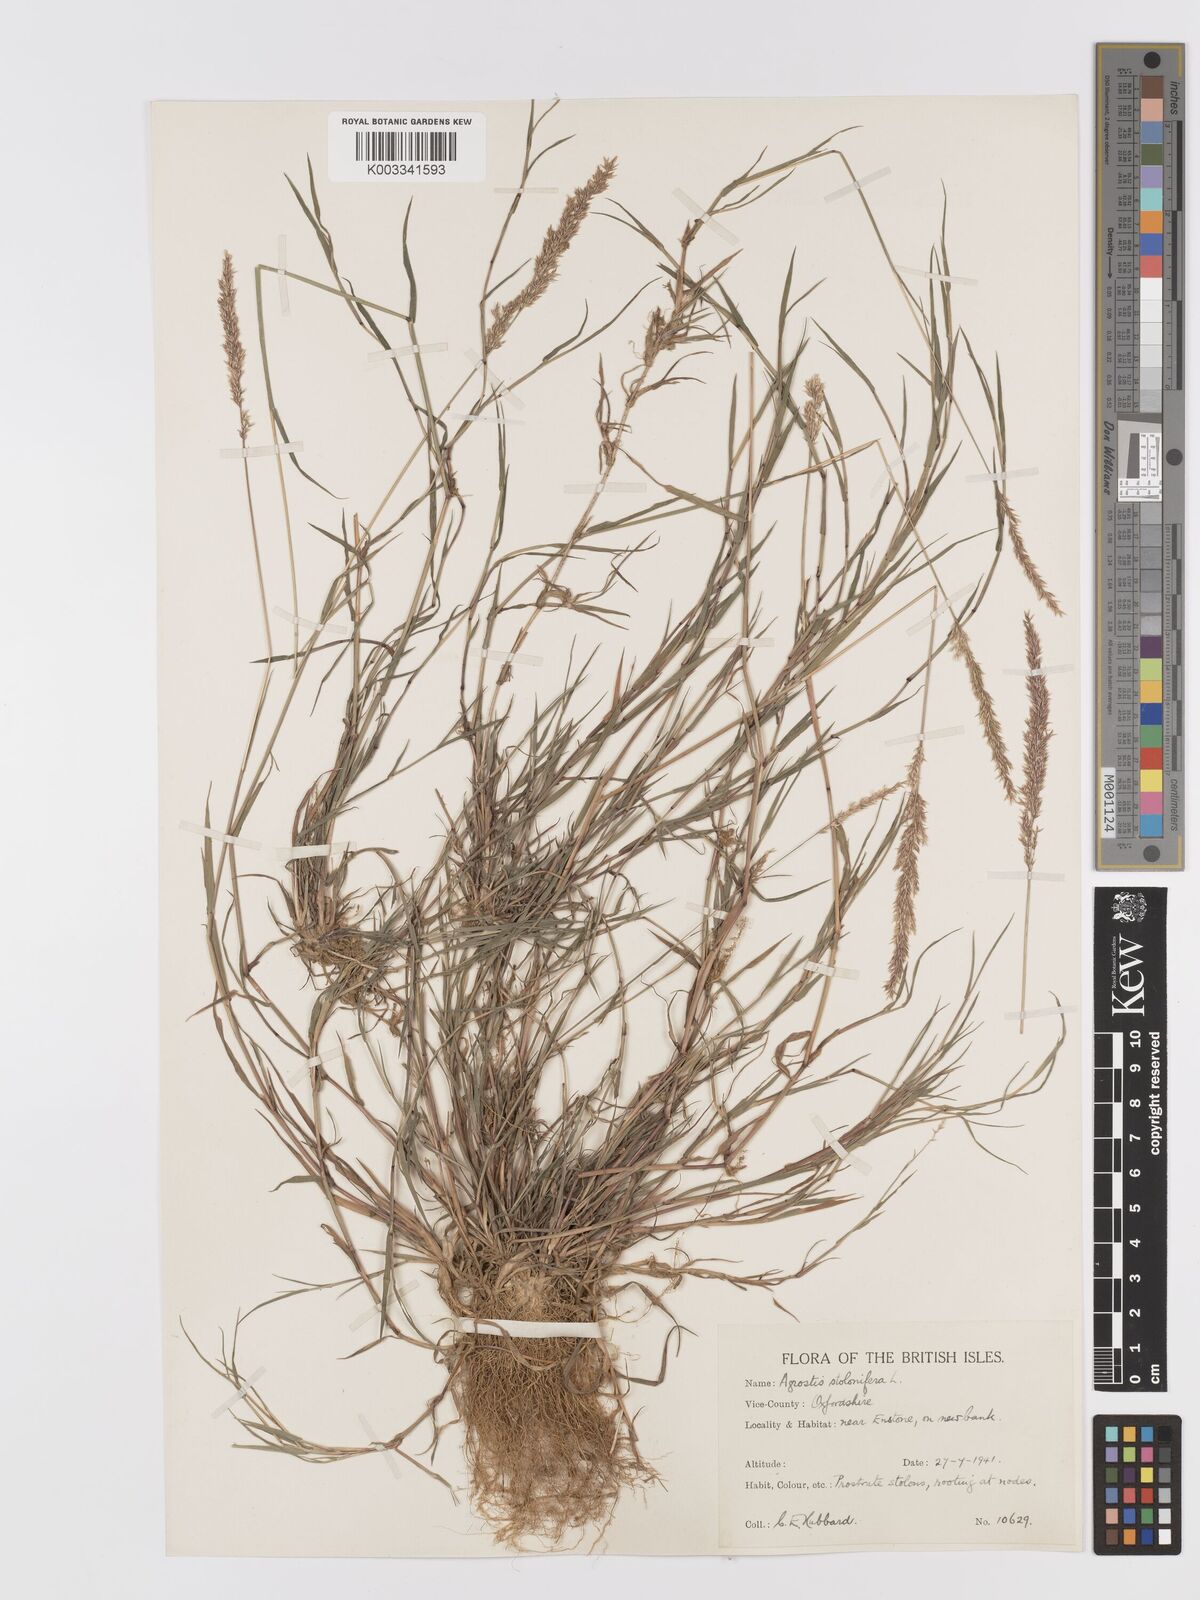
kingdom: Plantae
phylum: Tracheophyta
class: Liliopsida
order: Poales
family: Poaceae
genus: Agrostis
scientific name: Agrostis stolonifera
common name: Creeping bentgrass
